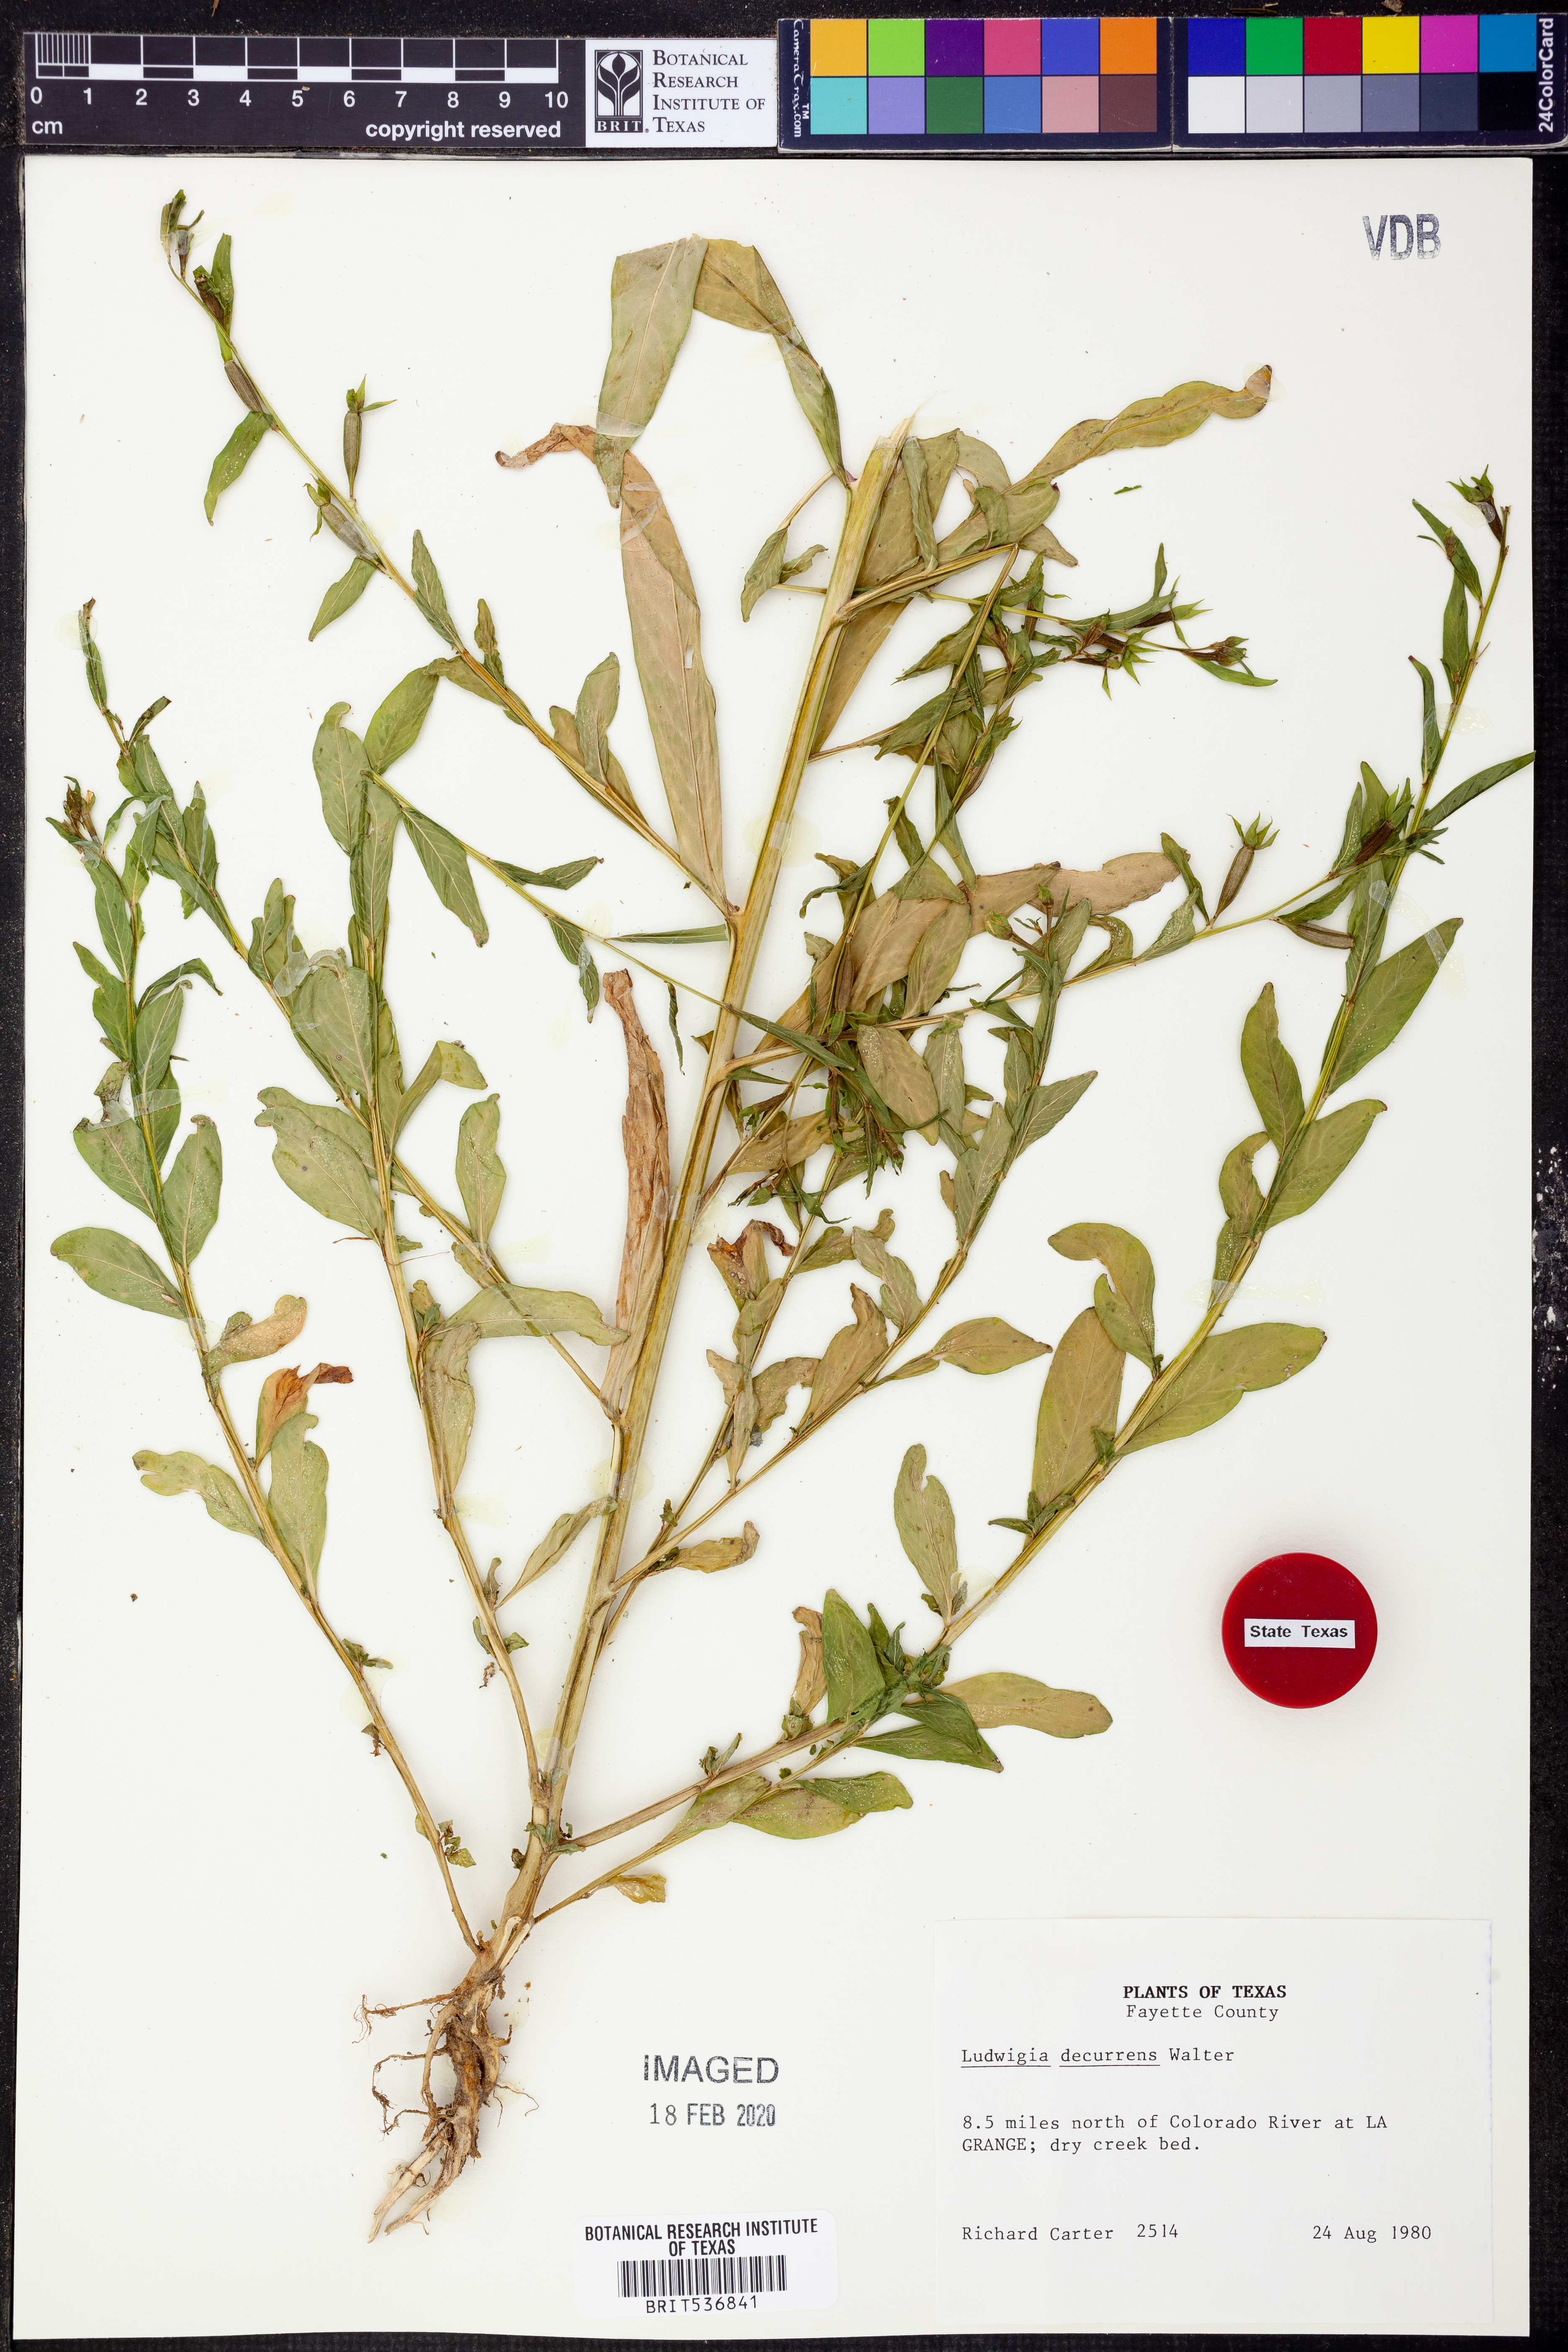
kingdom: Plantae
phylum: Tracheophyta
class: Magnoliopsida
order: Myrtales
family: Onagraceae
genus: Ludwigia
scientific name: Ludwigia decurrens
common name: Winged water-primrose
